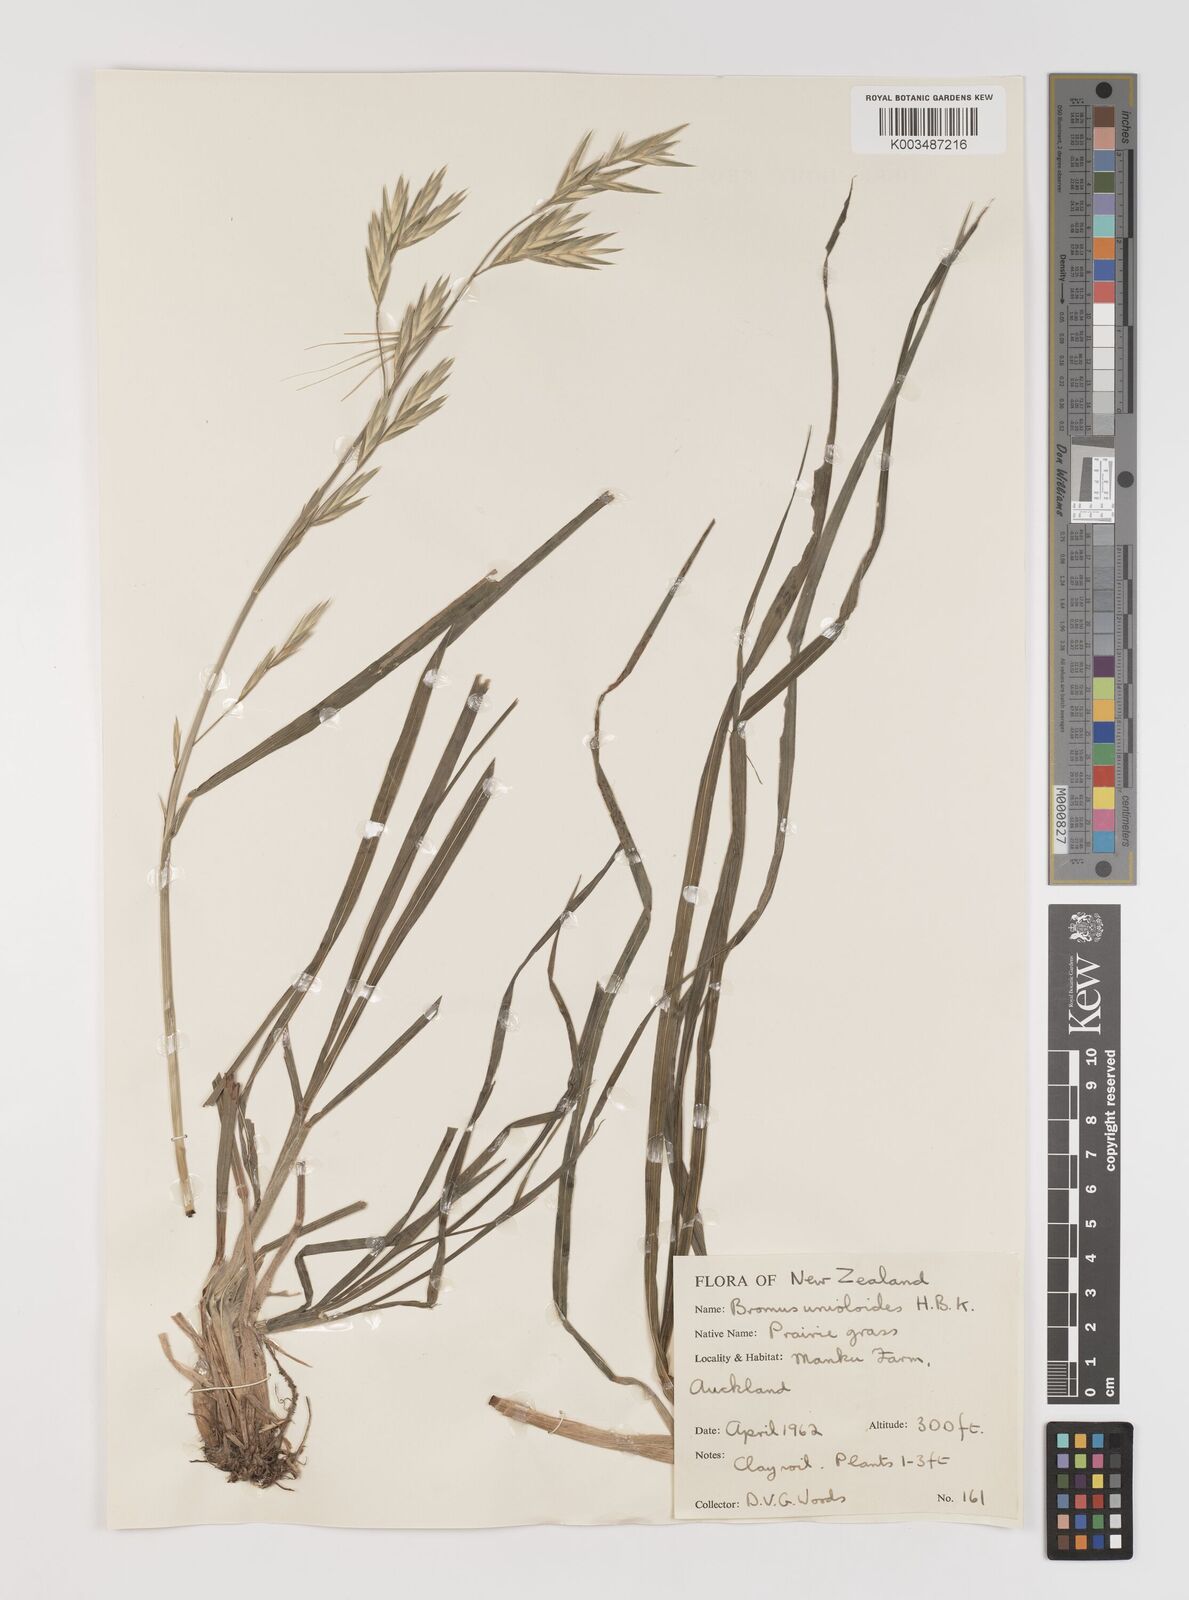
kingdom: Plantae
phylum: Tracheophyta
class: Liliopsida
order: Poales
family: Poaceae
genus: Bromus
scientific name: Bromus catharticus
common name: Rescuegrass
